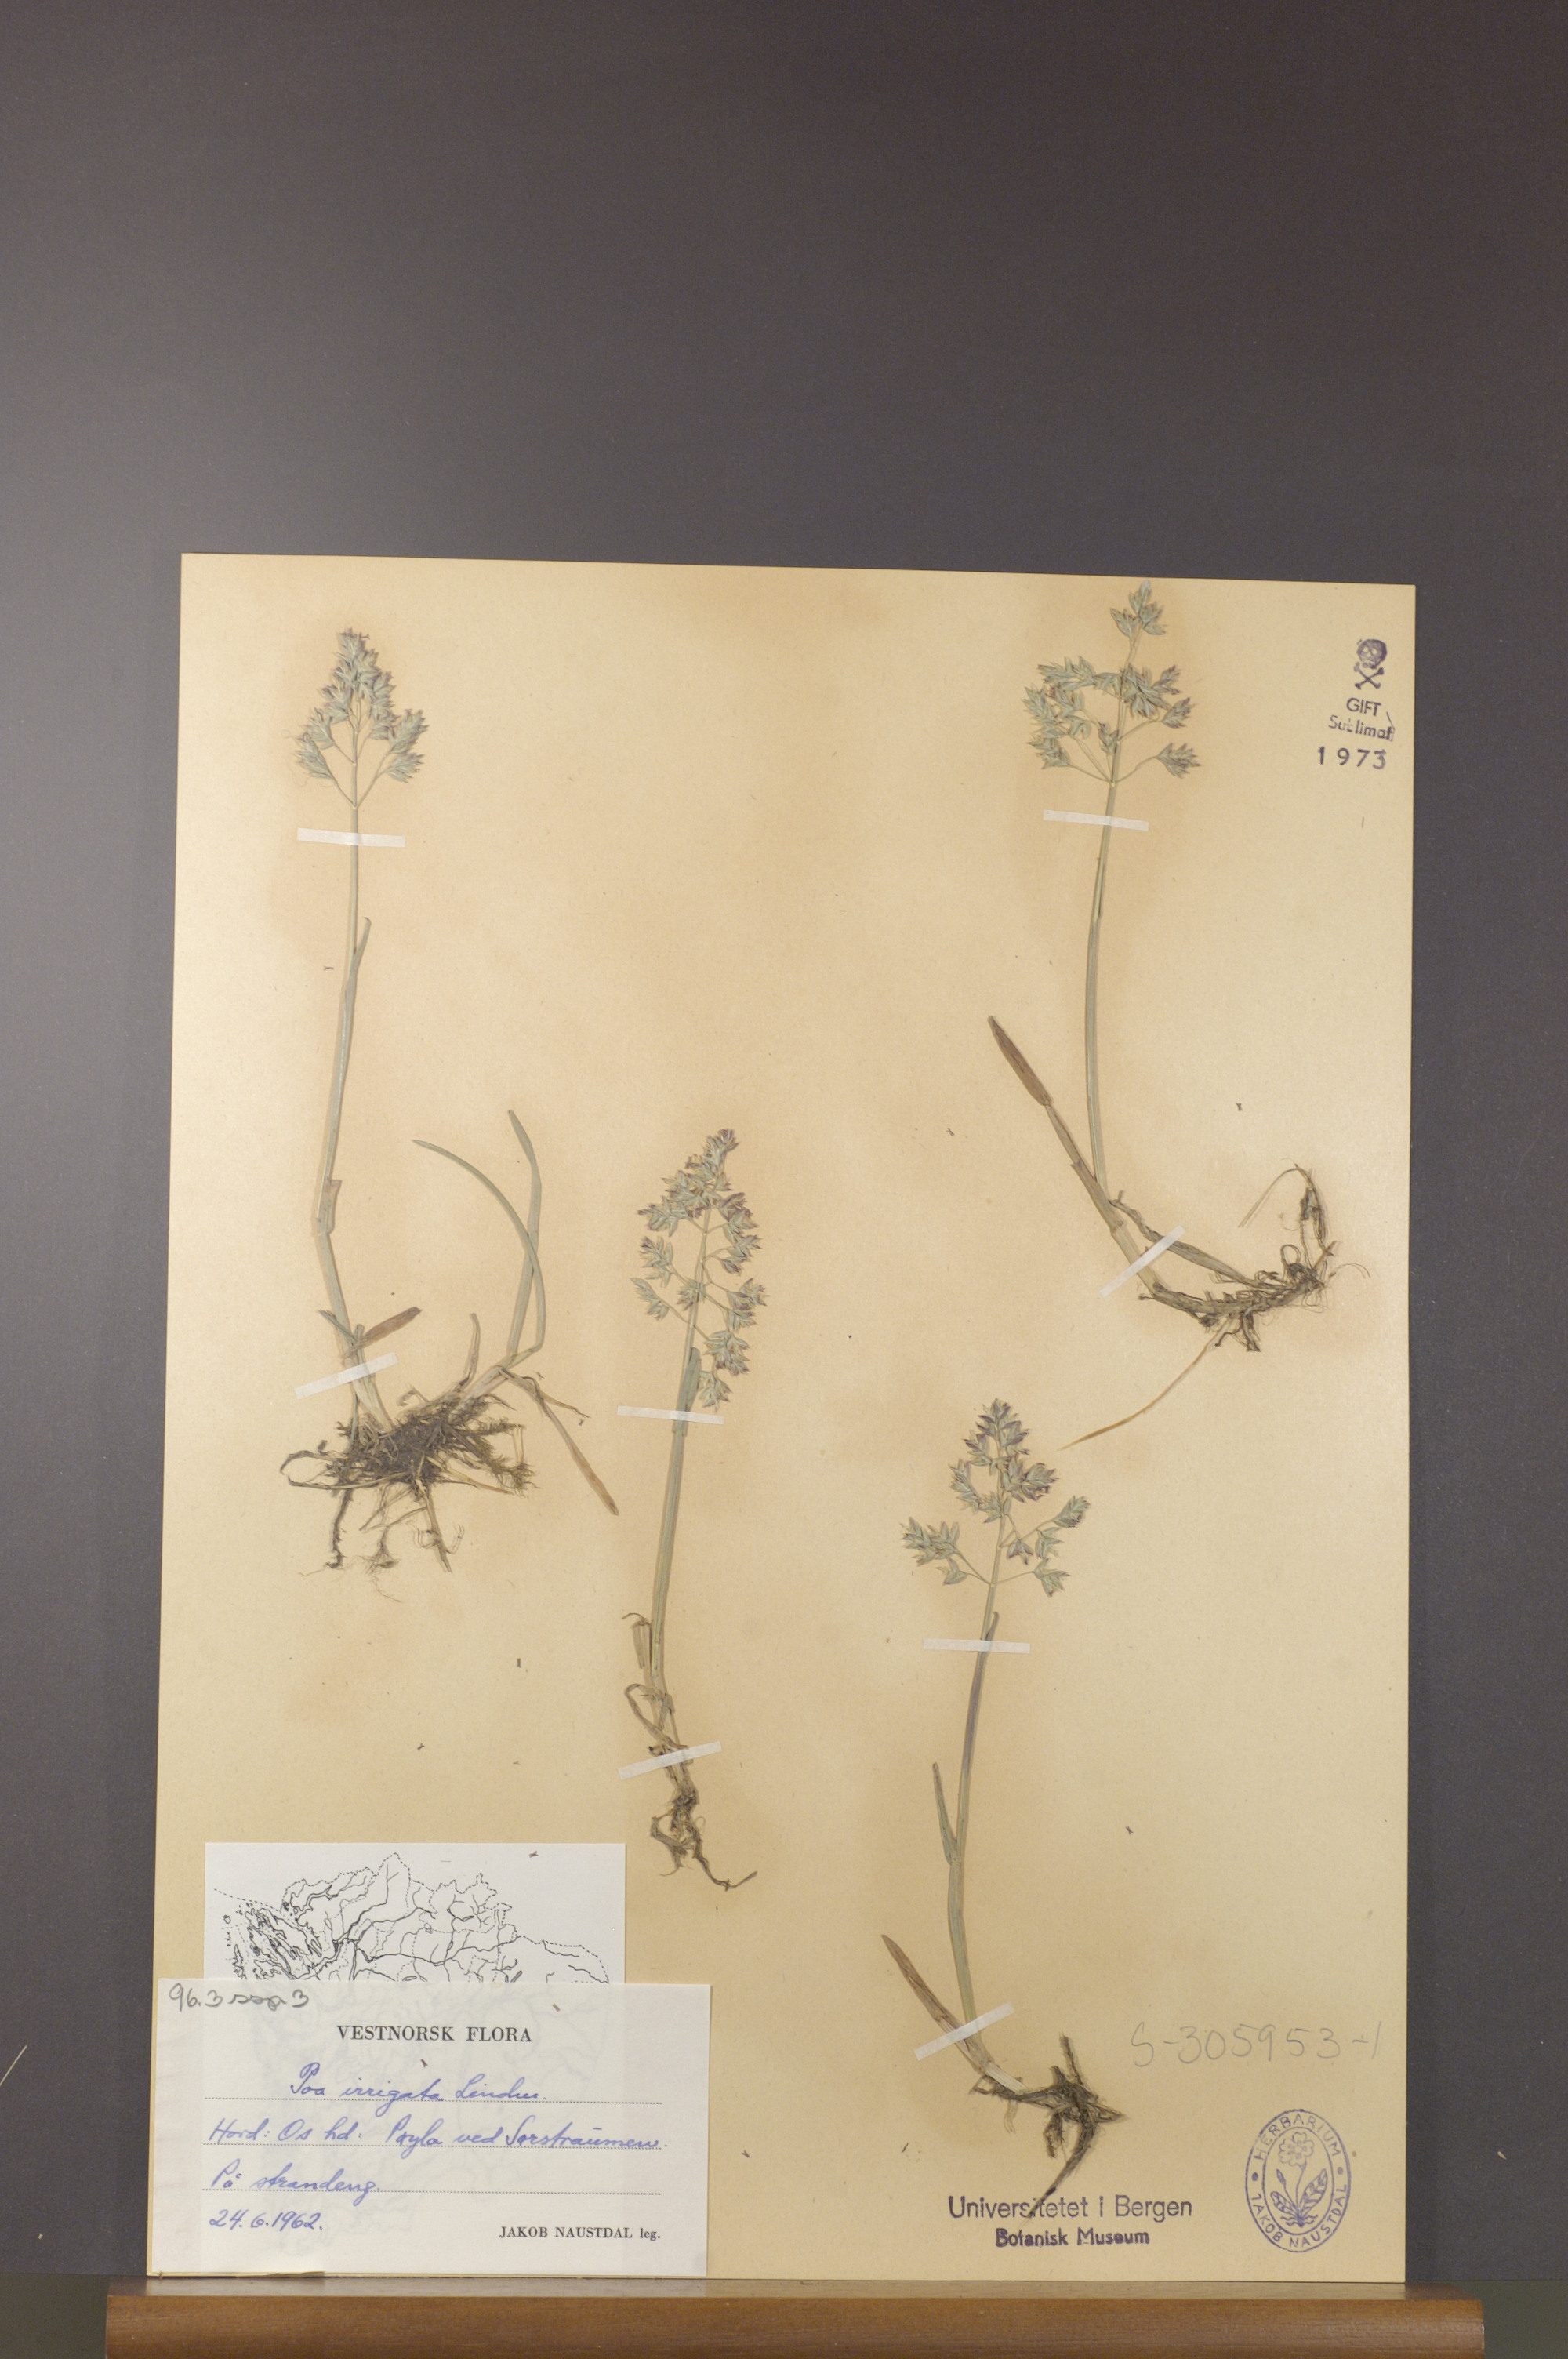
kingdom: Plantae
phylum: Tracheophyta
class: Liliopsida
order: Poales
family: Poaceae
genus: Poa
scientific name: Poa humilis
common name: Spreading meadow-grass
